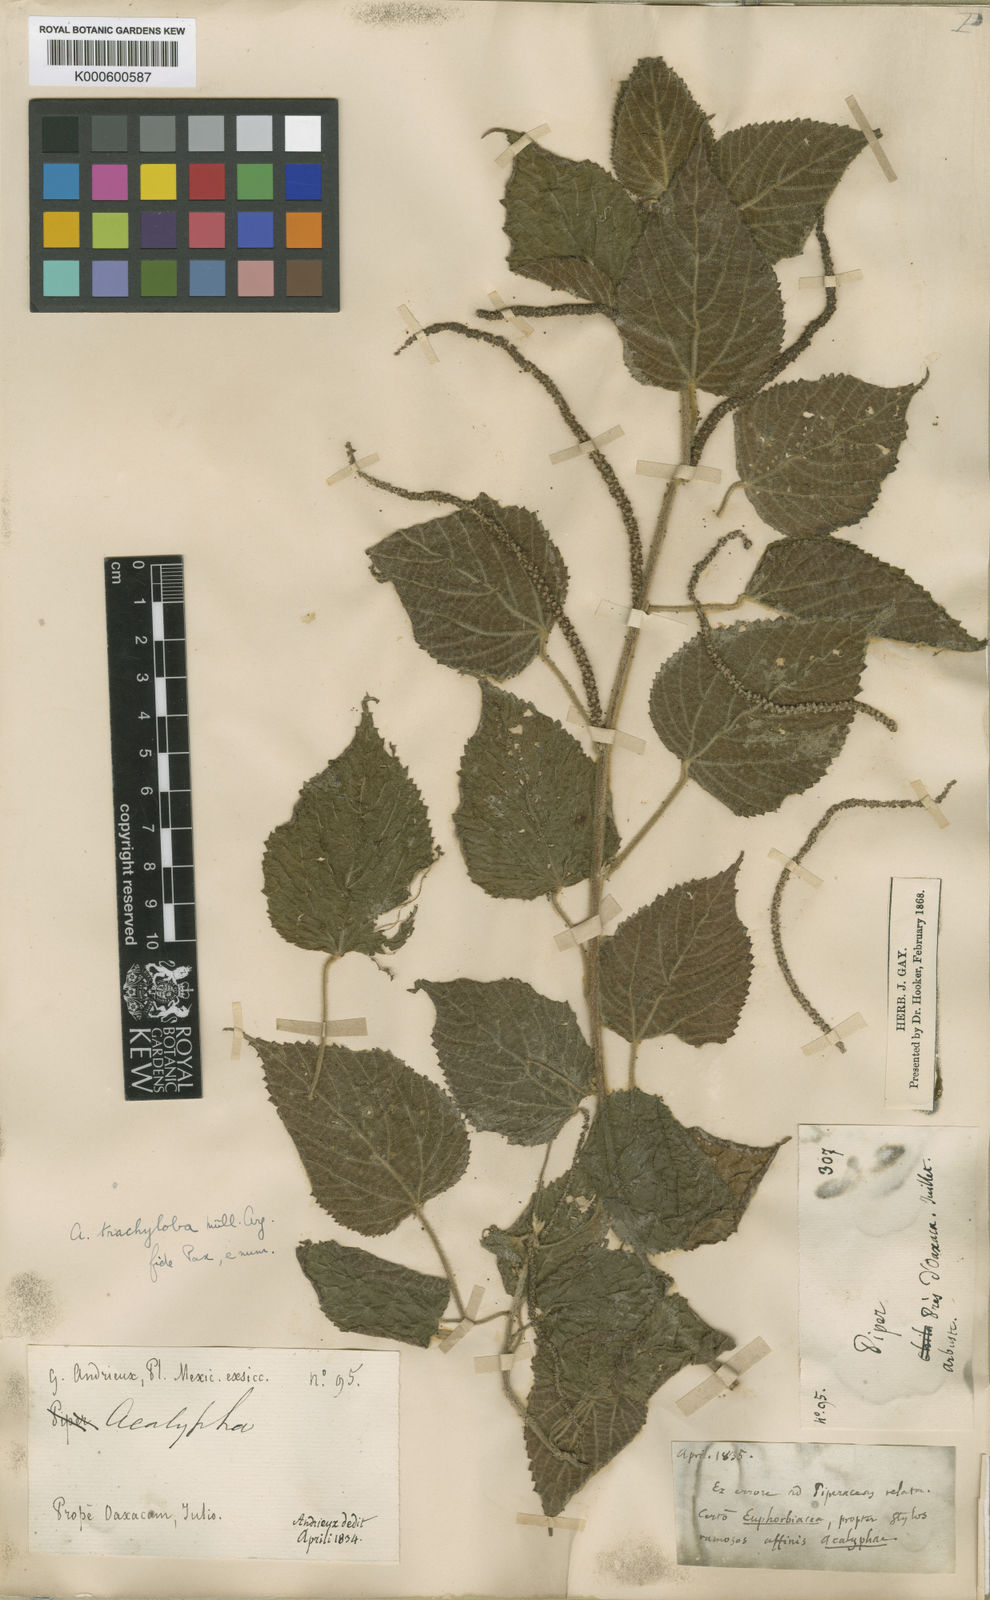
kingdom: Plantae
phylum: Tracheophyta
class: Magnoliopsida
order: Malpighiales
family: Euphorbiaceae
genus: Acalypha
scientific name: Acalypha
